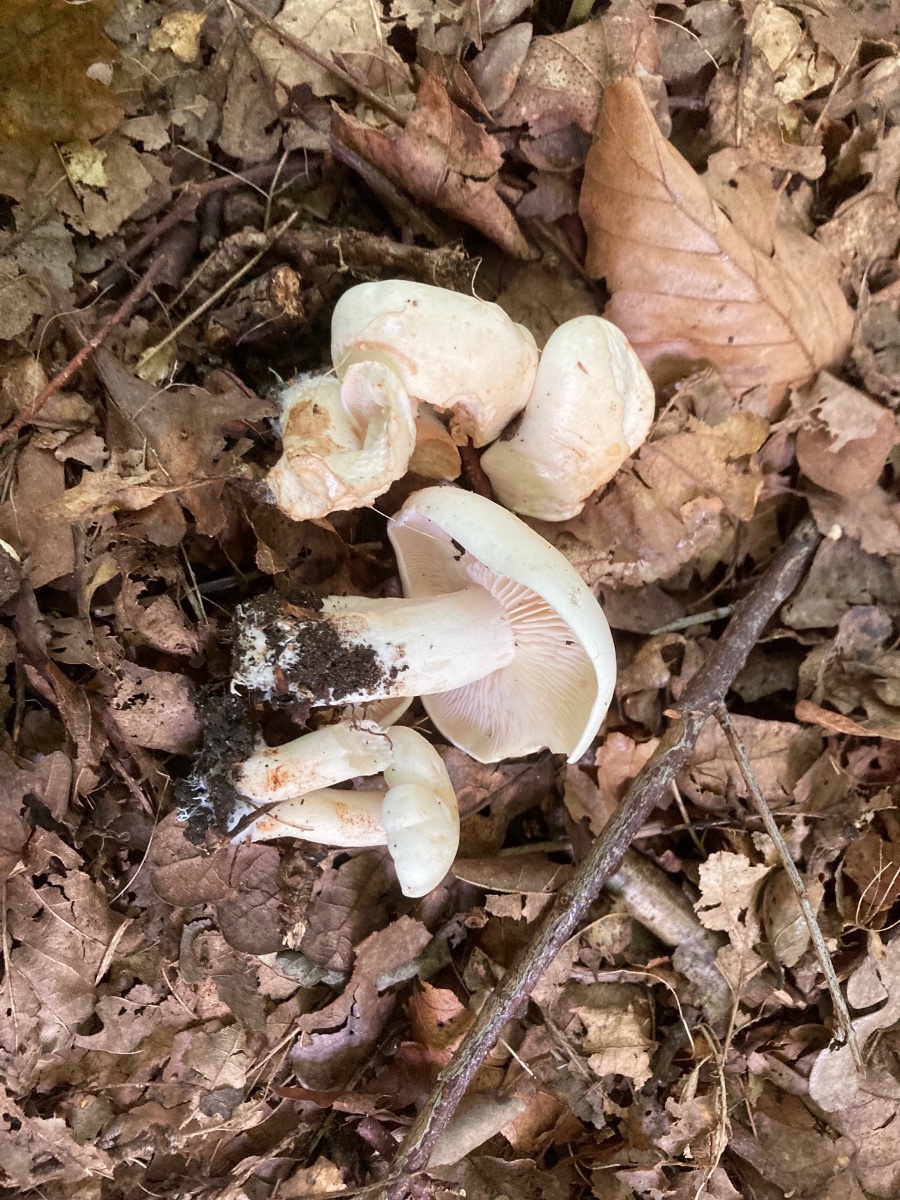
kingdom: Fungi
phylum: Basidiomycota
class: Agaricomycetes
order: Agaricales
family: Tricholomataceae
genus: Tricholoma
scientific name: Tricholoma lascivum
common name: stinkende ridderhat
